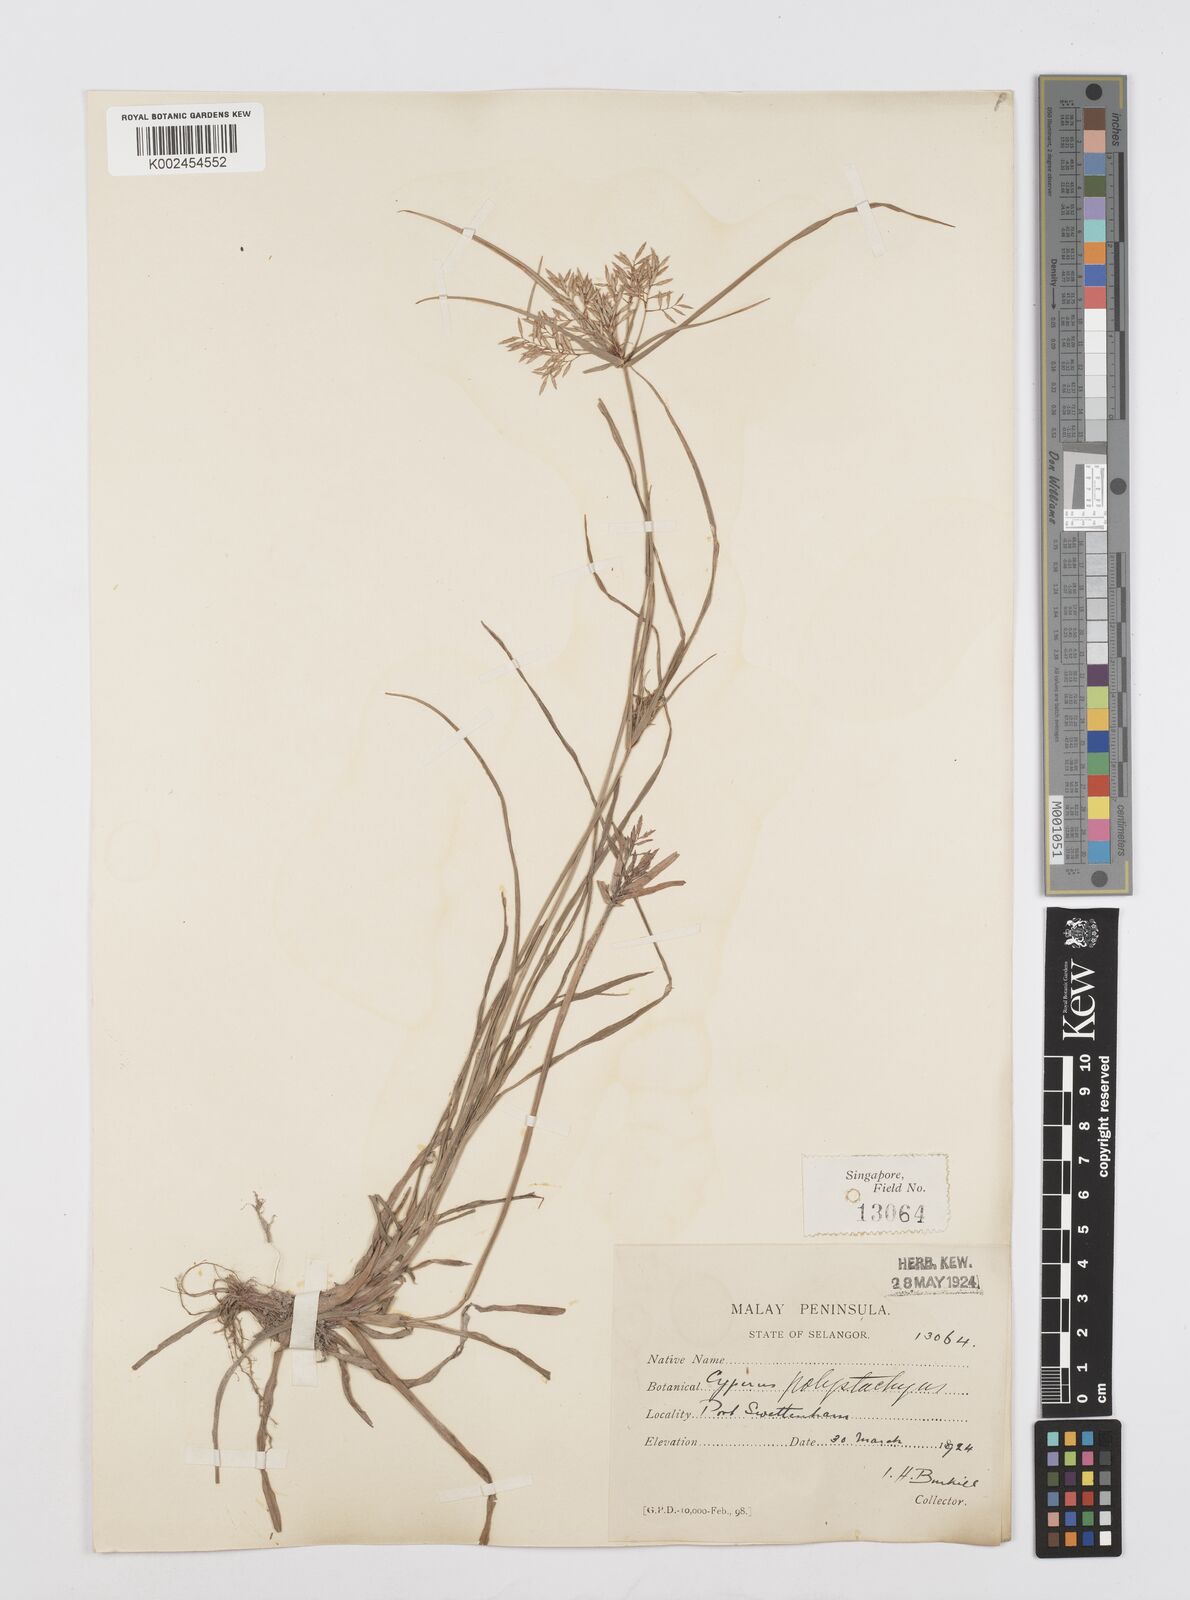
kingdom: Plantae
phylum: Tracheophyta
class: Liliopsida
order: Poales
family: Cyperaceae
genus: Cyperus
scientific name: Cyperus polystachyos
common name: Bunchy flat sedge
